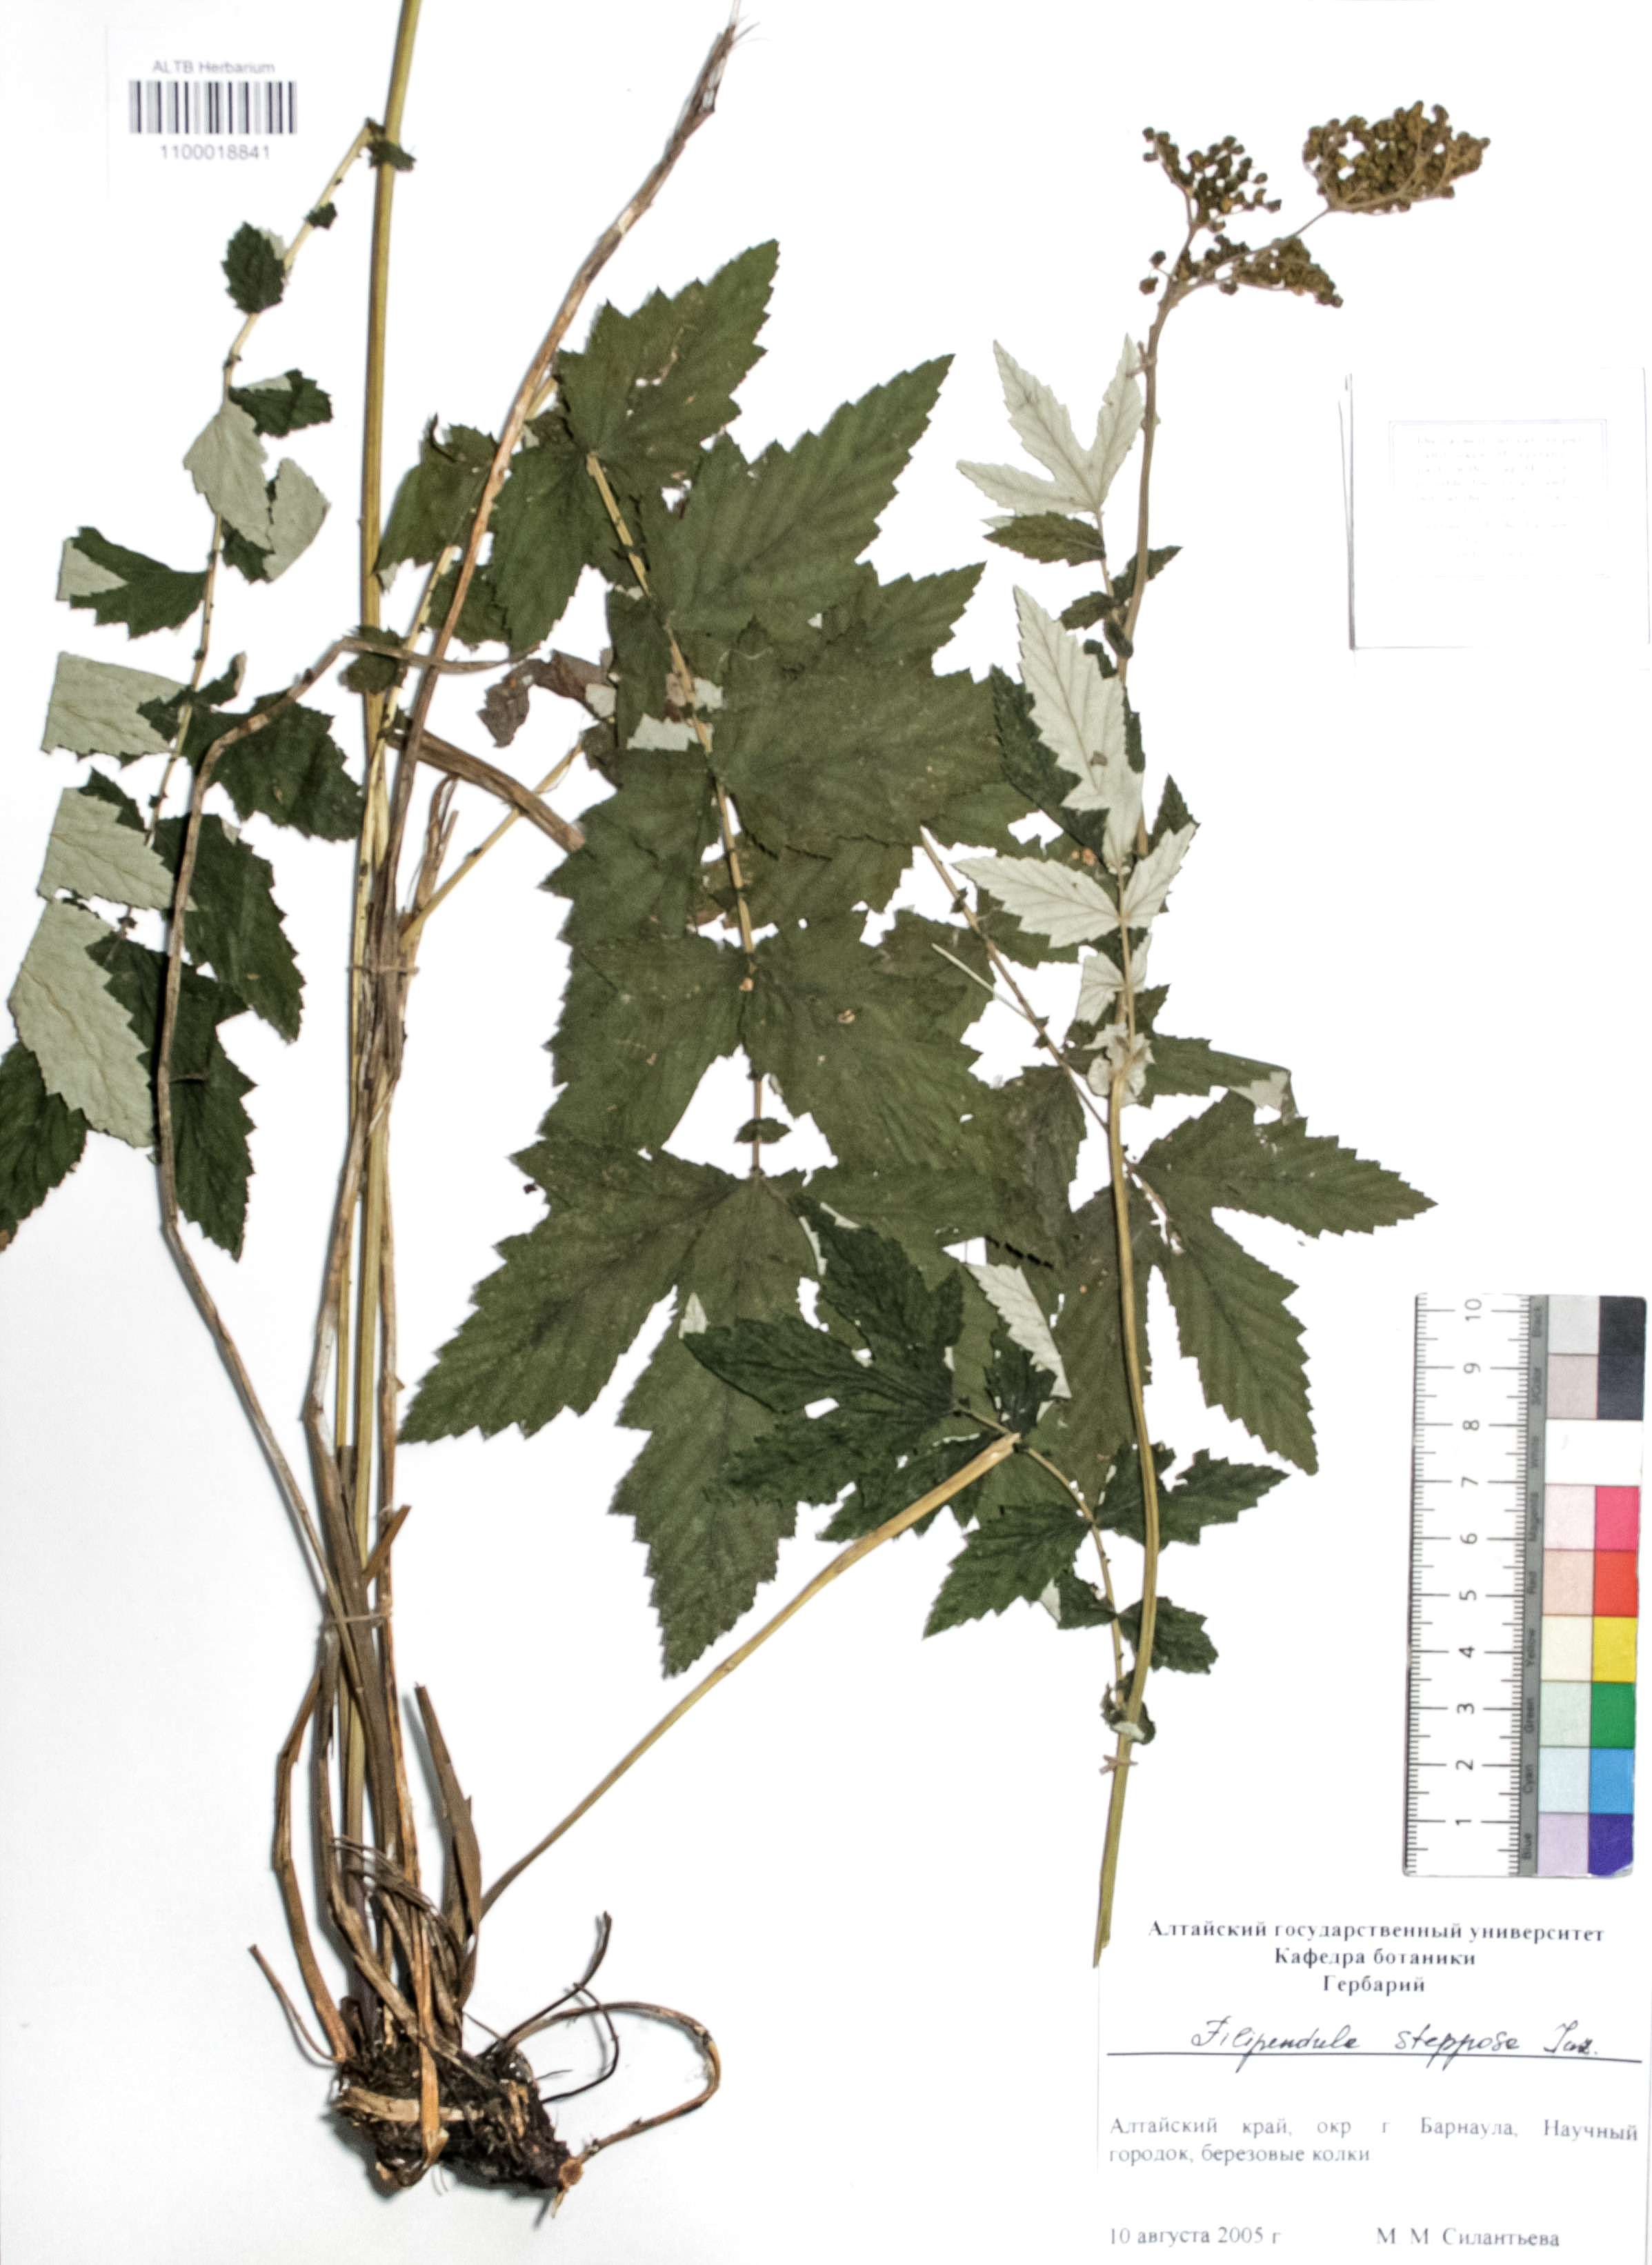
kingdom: Plantae
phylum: Tracheophyta
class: Magnoliopsida
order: Rosales
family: Rosaceae
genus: Filipendula
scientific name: Filipendula ulmaria
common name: Meadowsweet
